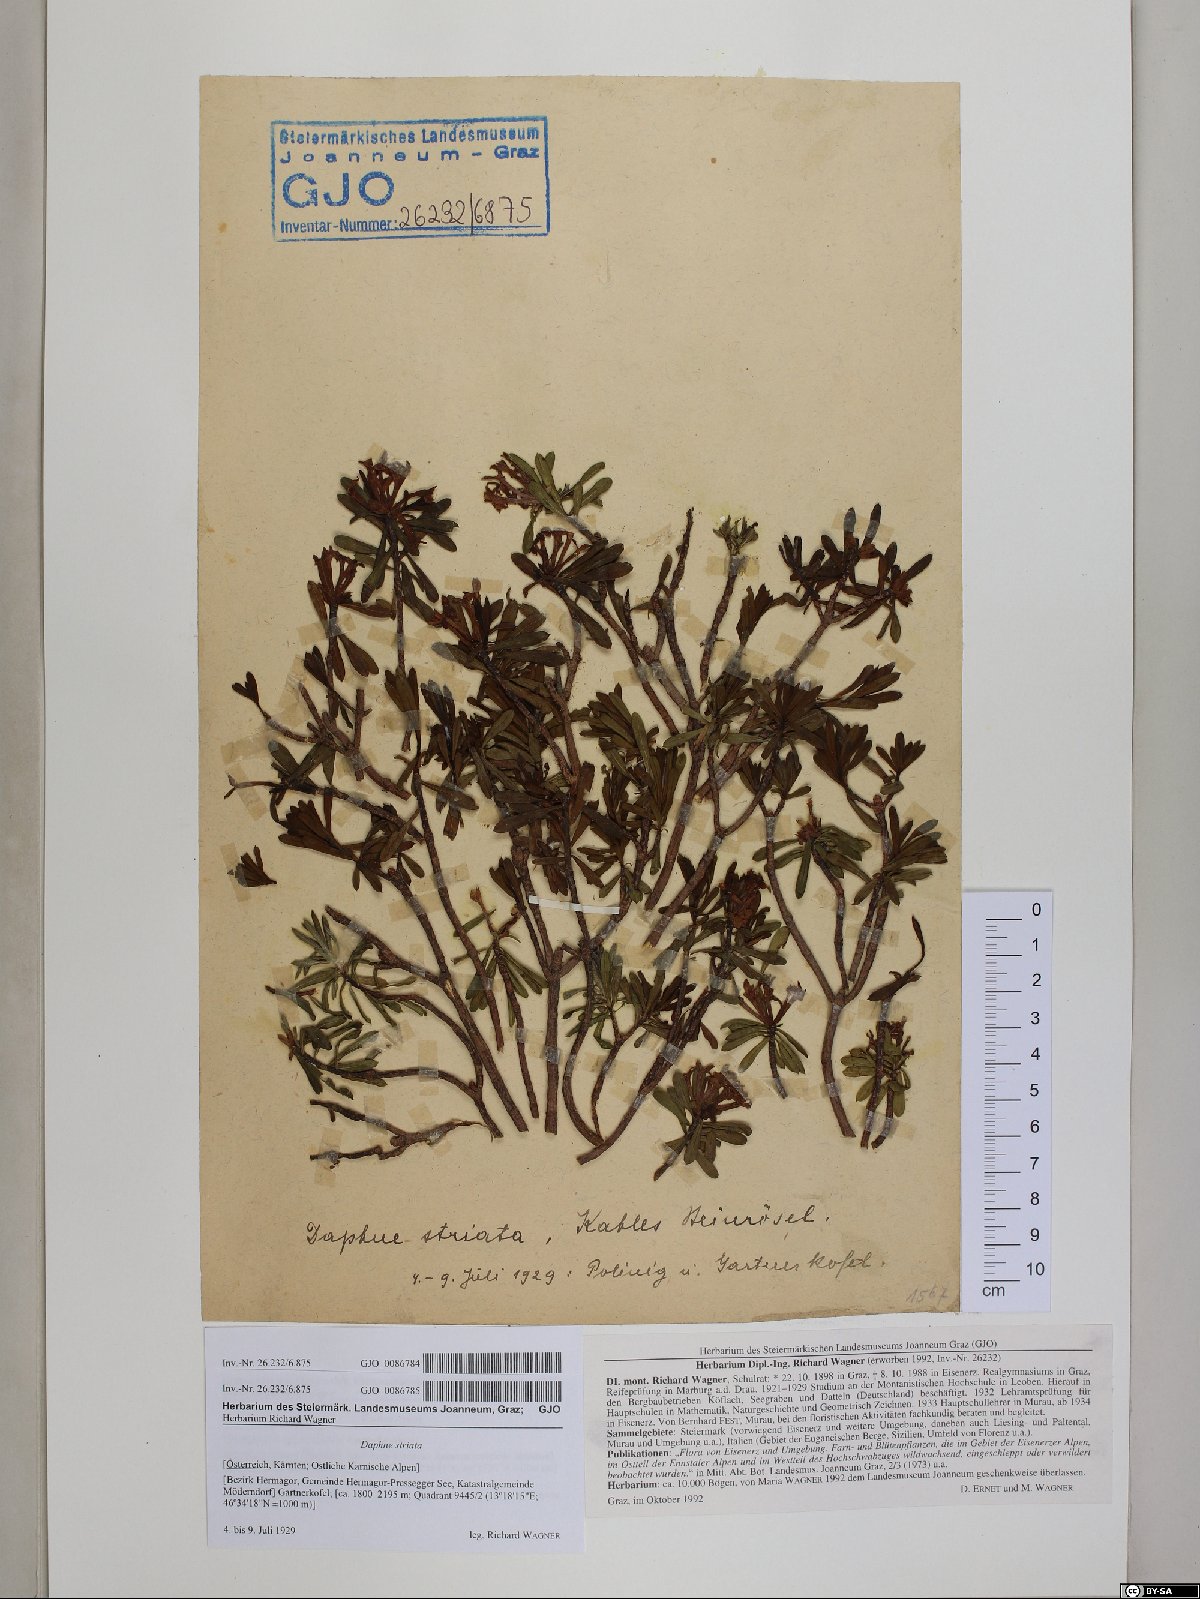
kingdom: Plantae
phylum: Tracheophyta
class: Magnoliopsida
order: Malvales
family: Thymelaeaceae
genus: Daphne
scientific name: Daphne striata
